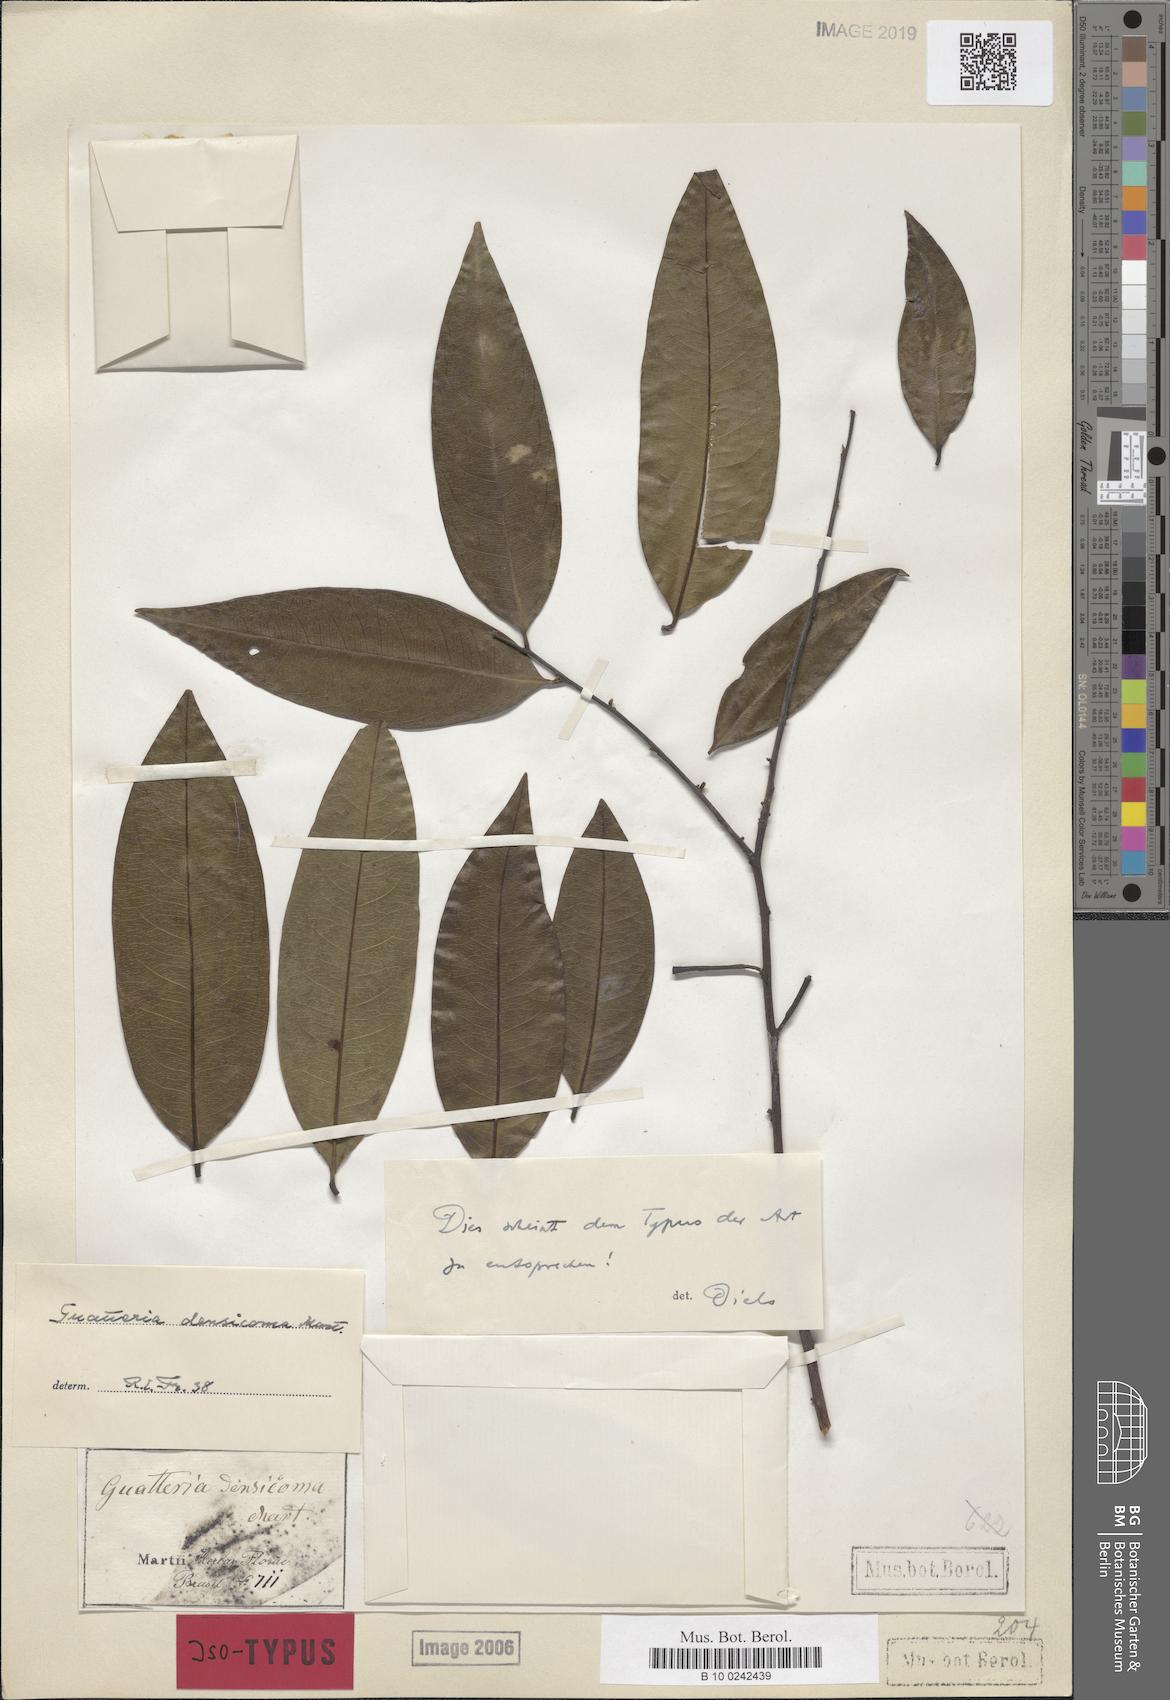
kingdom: Plantae
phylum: Tracheophyta
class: Magnoliopsida
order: Magnoliales
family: Annonaceae
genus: Guatteria
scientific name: Guatteria australis
